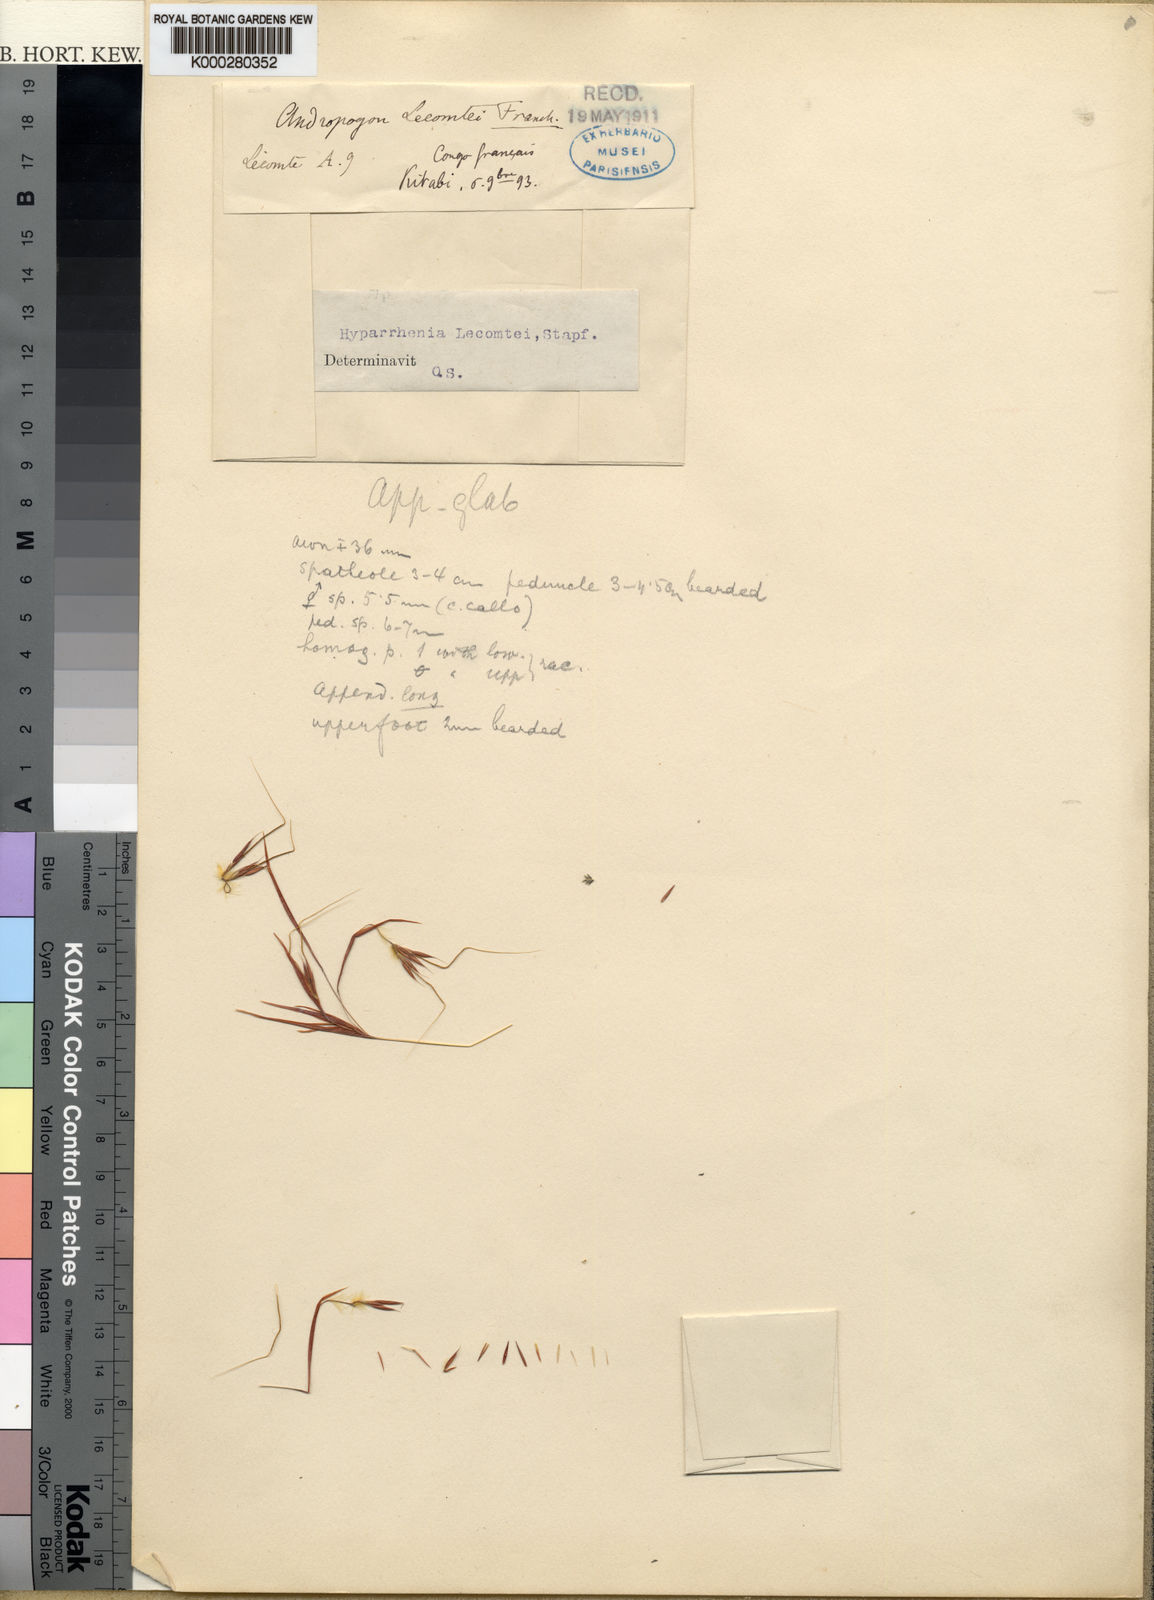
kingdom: Plantae
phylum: Tracheophyta
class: Liliopsida
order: Poales
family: Poaceae
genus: Hyparrhenia
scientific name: Hyparrhenia newtonii
